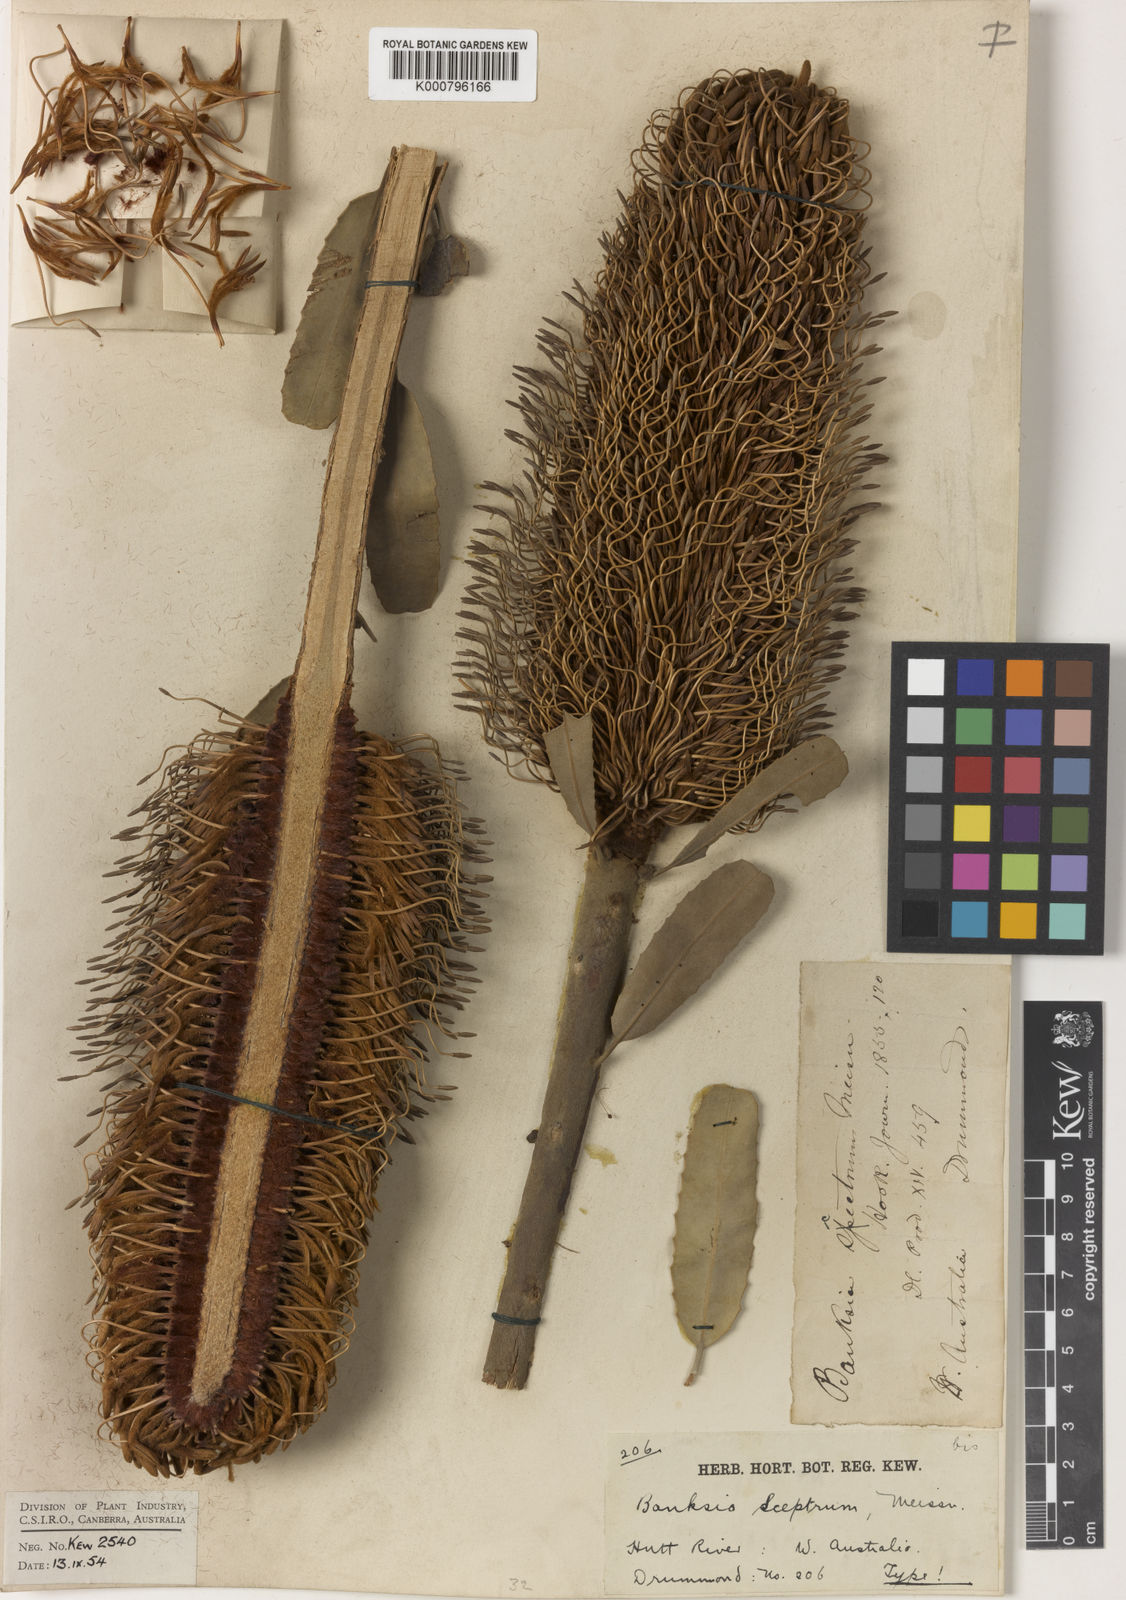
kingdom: Plantae
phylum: Tracheophyta
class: Magnoliopsida
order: Proteales
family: Proteaceae
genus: Banksia
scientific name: Banksia sceptrum
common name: Sceptre banksia
